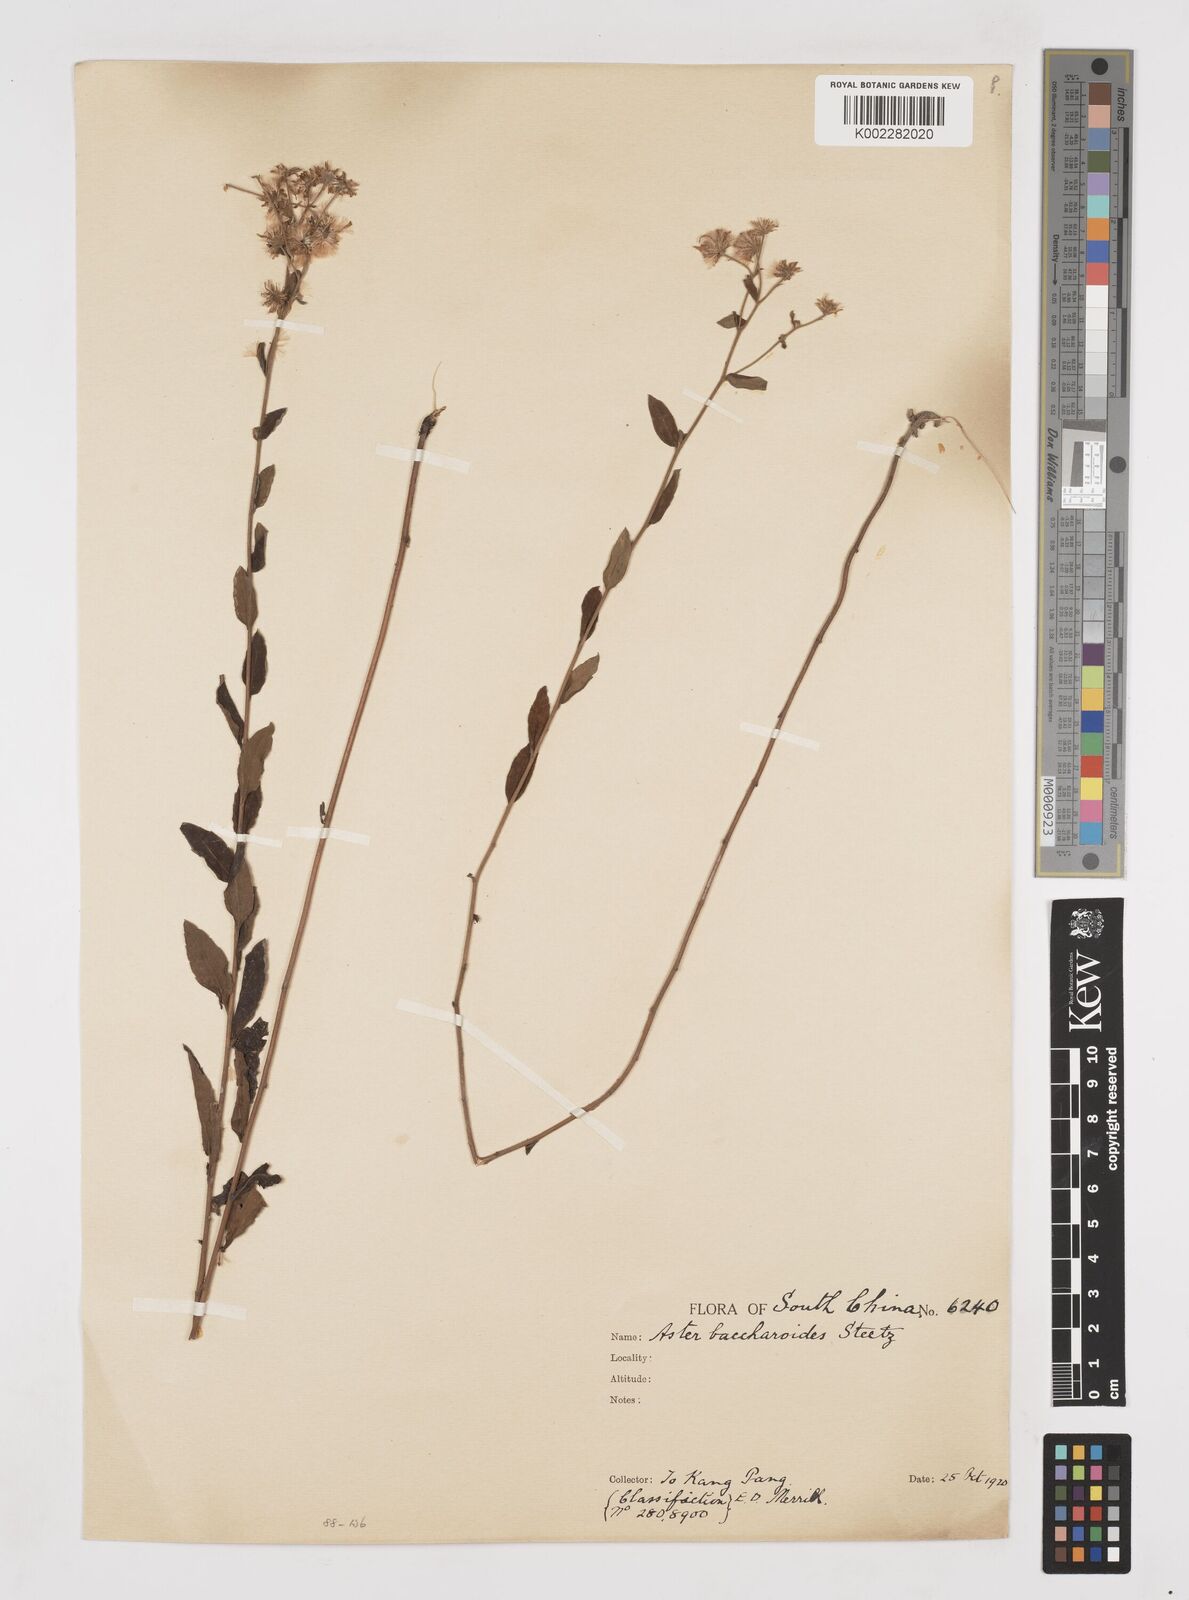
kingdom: Plantae
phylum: Tracheophyta
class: Magnoliopsida
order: Asterales
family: Asteraceae
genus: Aster
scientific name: Aster baccharoides
